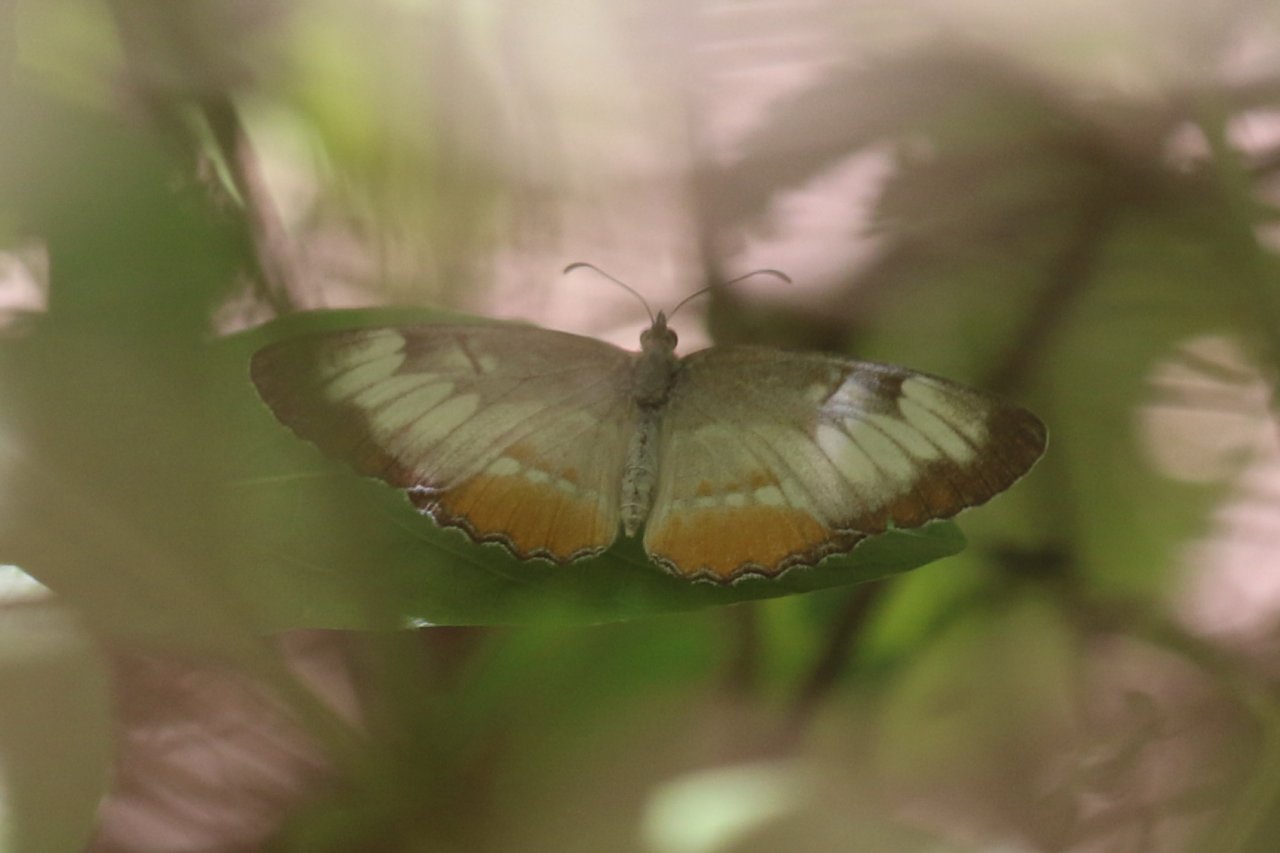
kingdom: Animalia
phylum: Arthropoda
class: Insecta
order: Lepidoptera
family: Nymphalidae
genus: Mestra
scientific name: Mestra amymone
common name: Common Mestra
